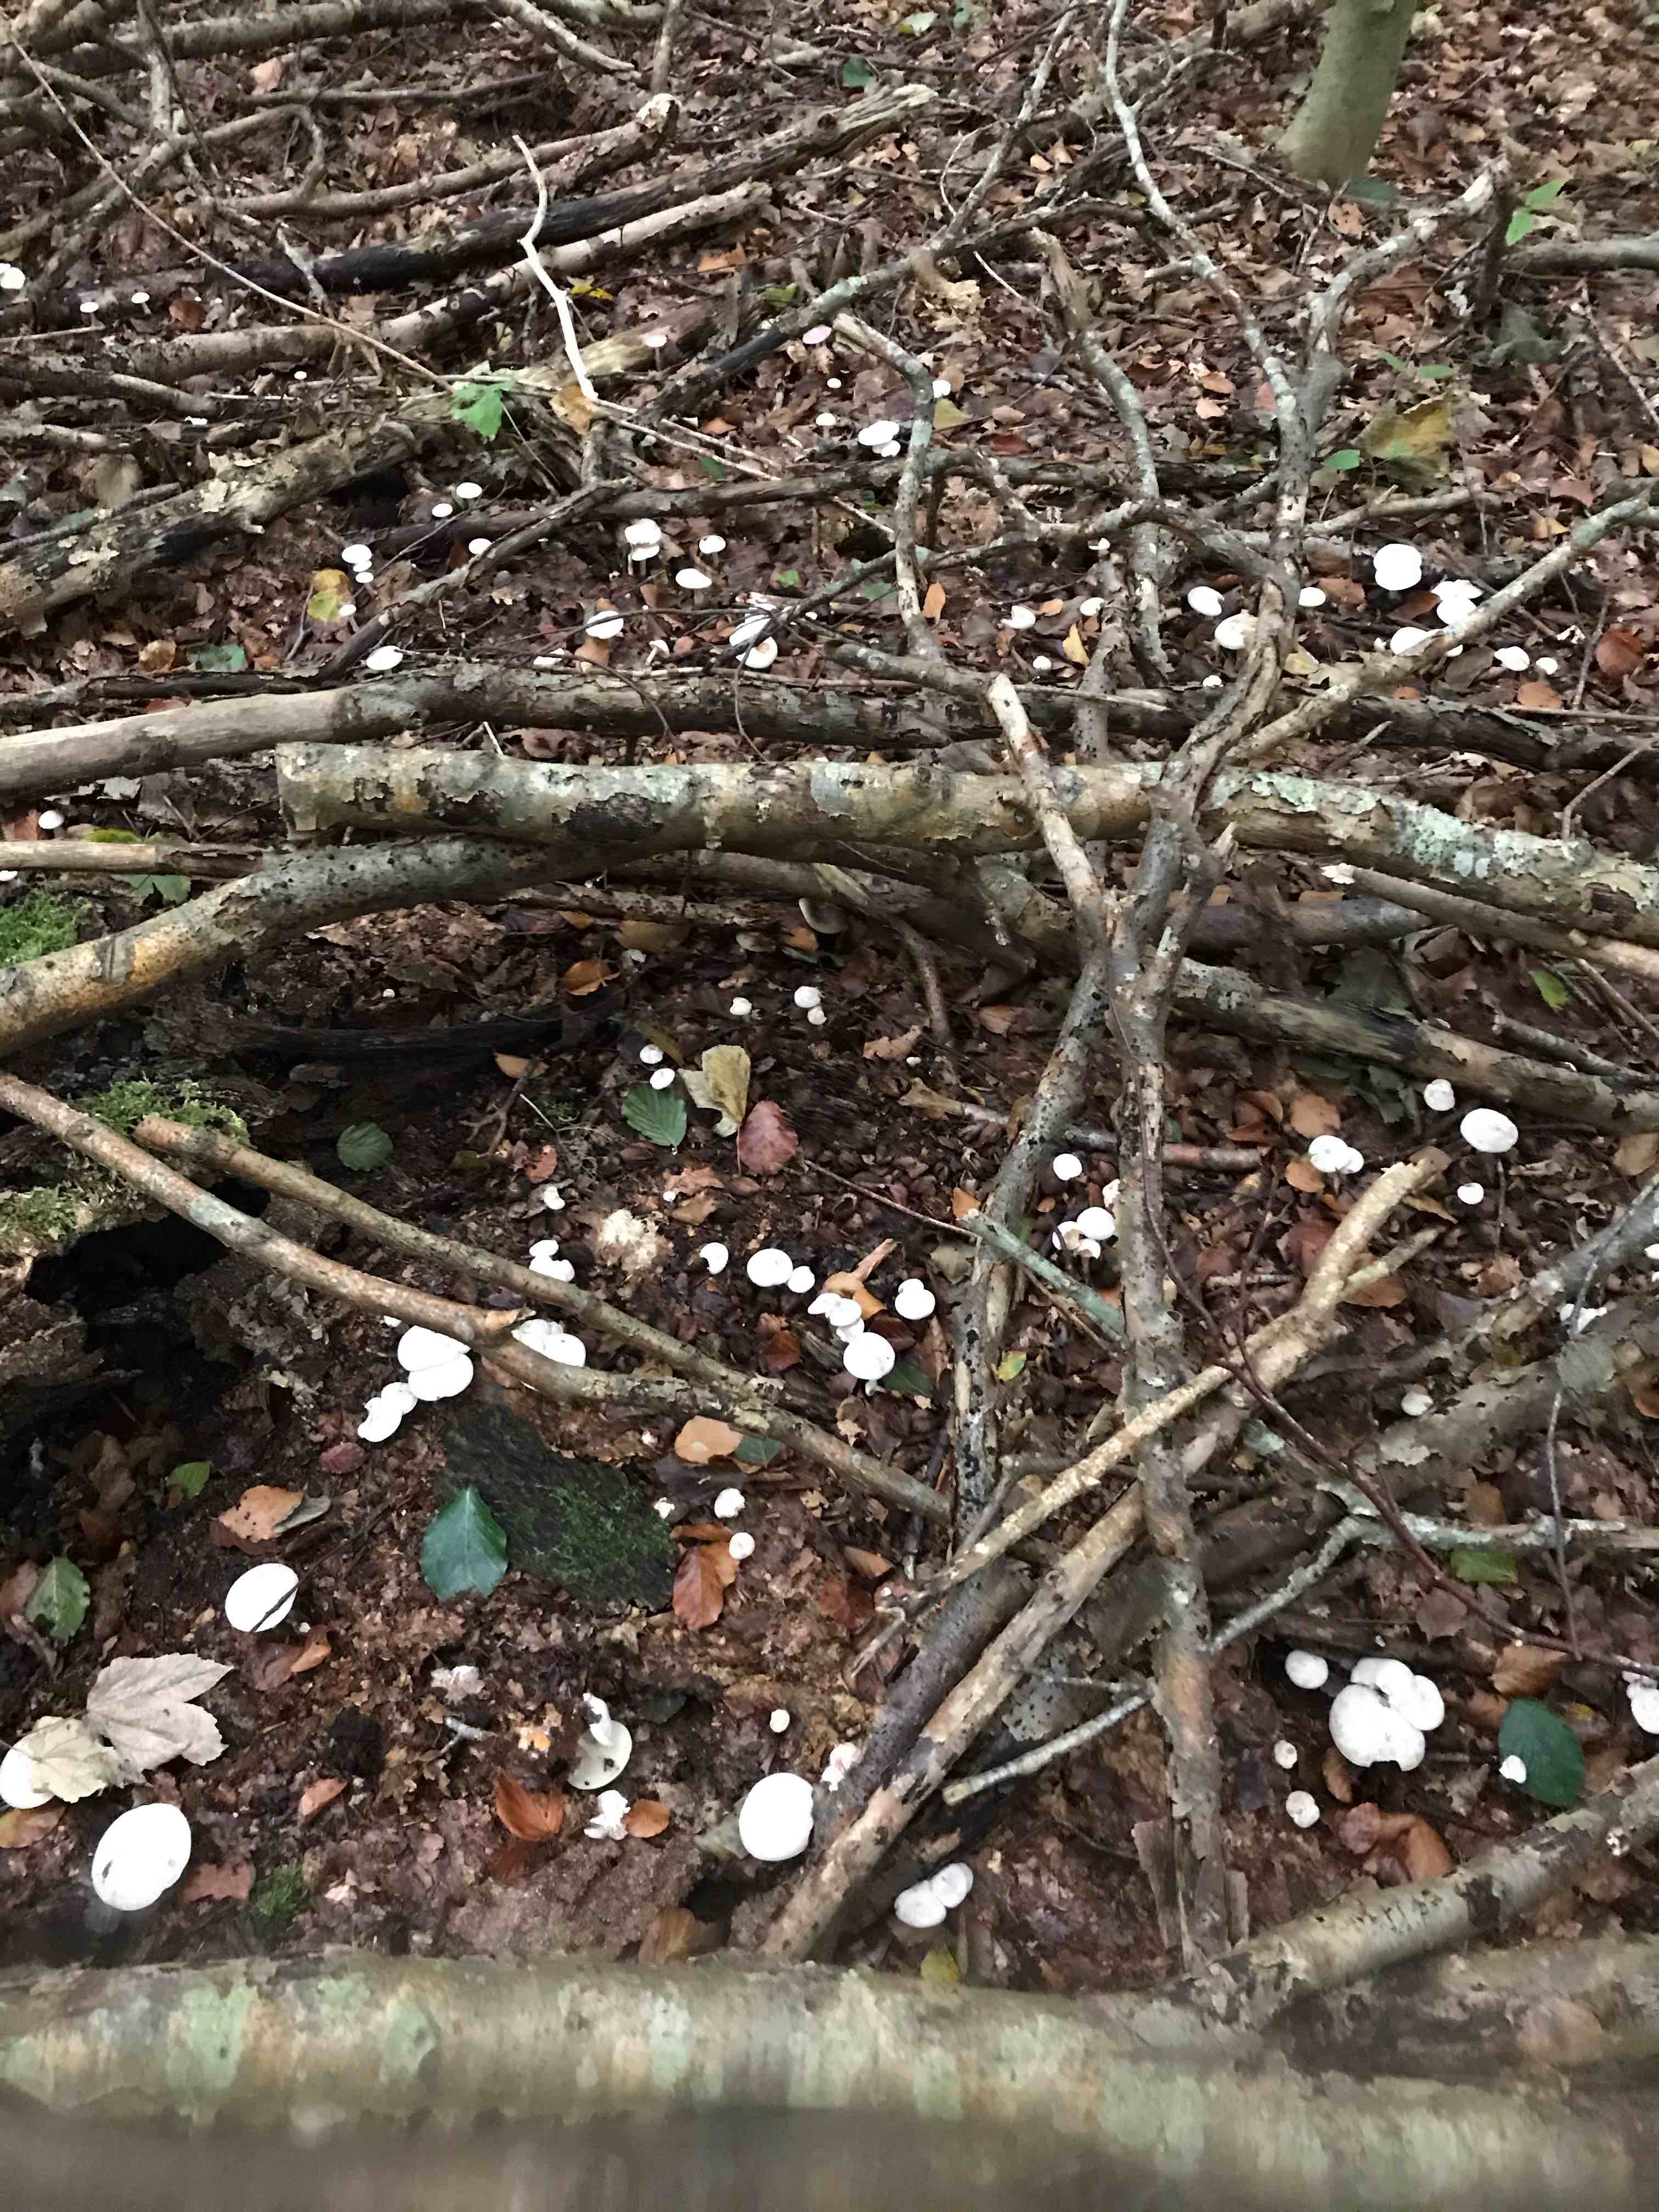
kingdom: Fungi
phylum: Basidiomycota
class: Agaricomycetes
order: Agaricales
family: Tricholomataceae
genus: Leucocybe
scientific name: Leucocybe candicans
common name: kridt-tragthat
